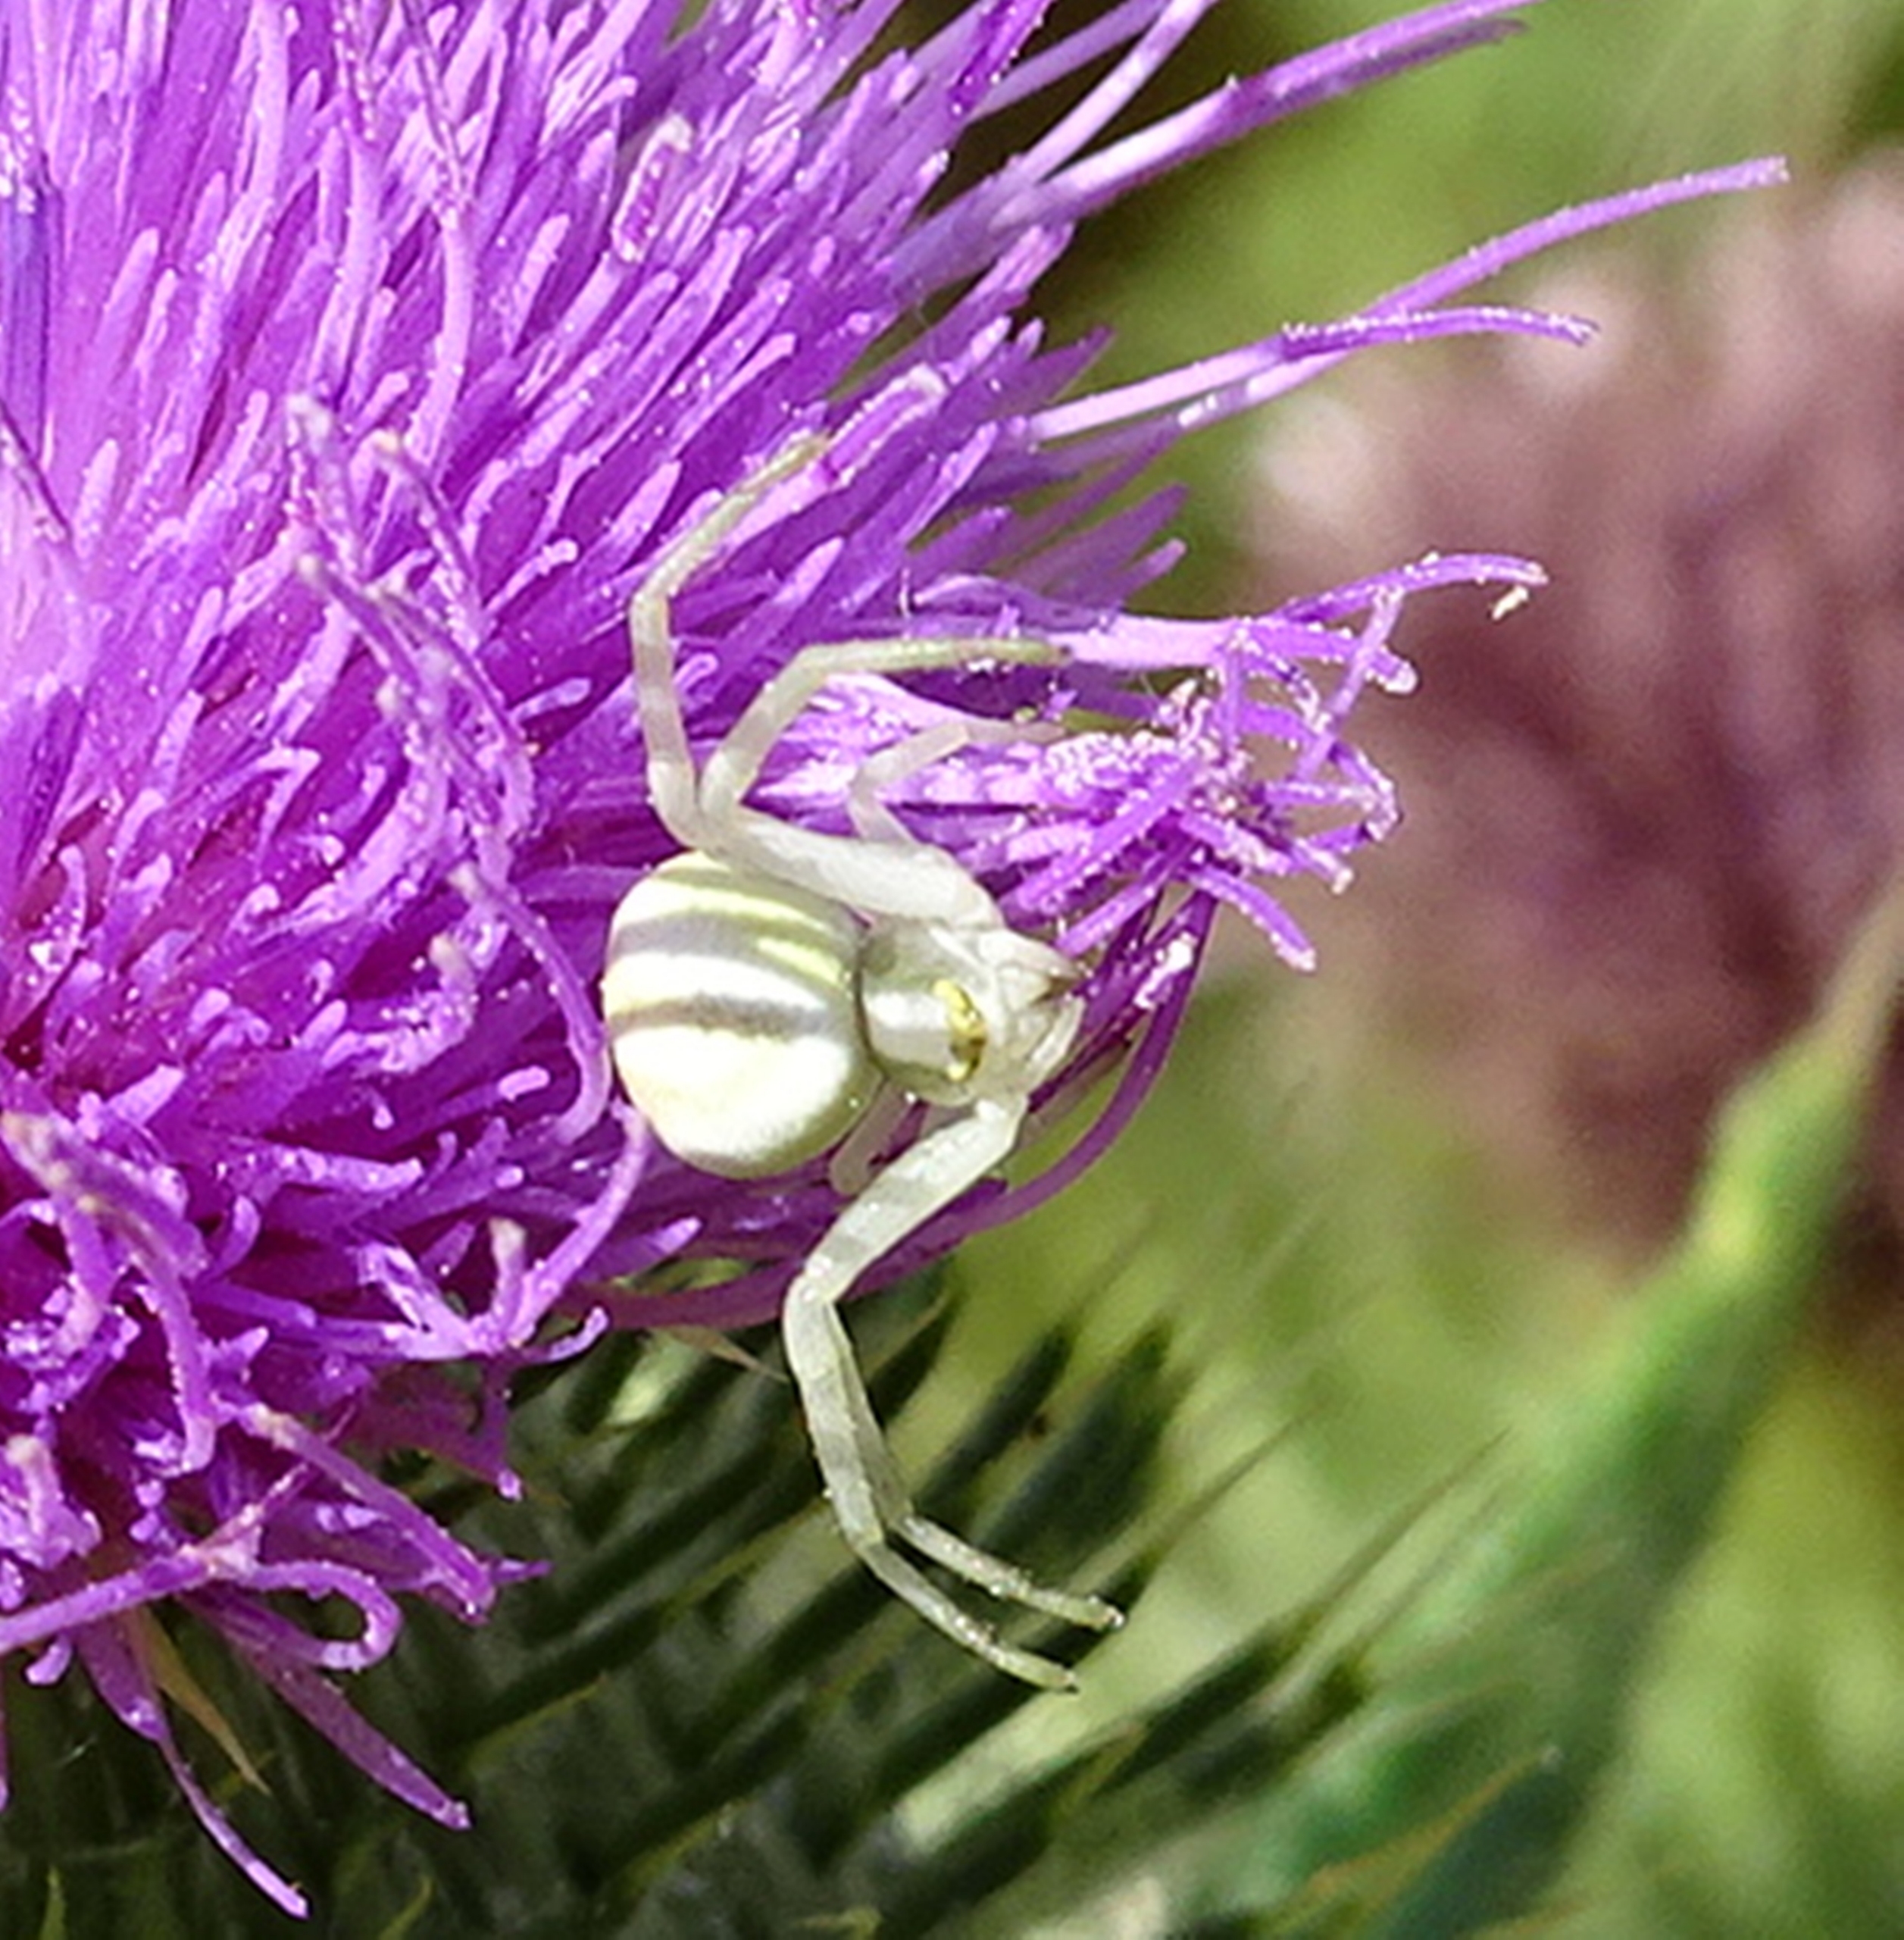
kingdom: Animalia
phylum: Arthropoda
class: Arachnida
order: Araneae
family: Thomisidae
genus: Misumena
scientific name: Misumena vatia
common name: Kamæleonedderkop
